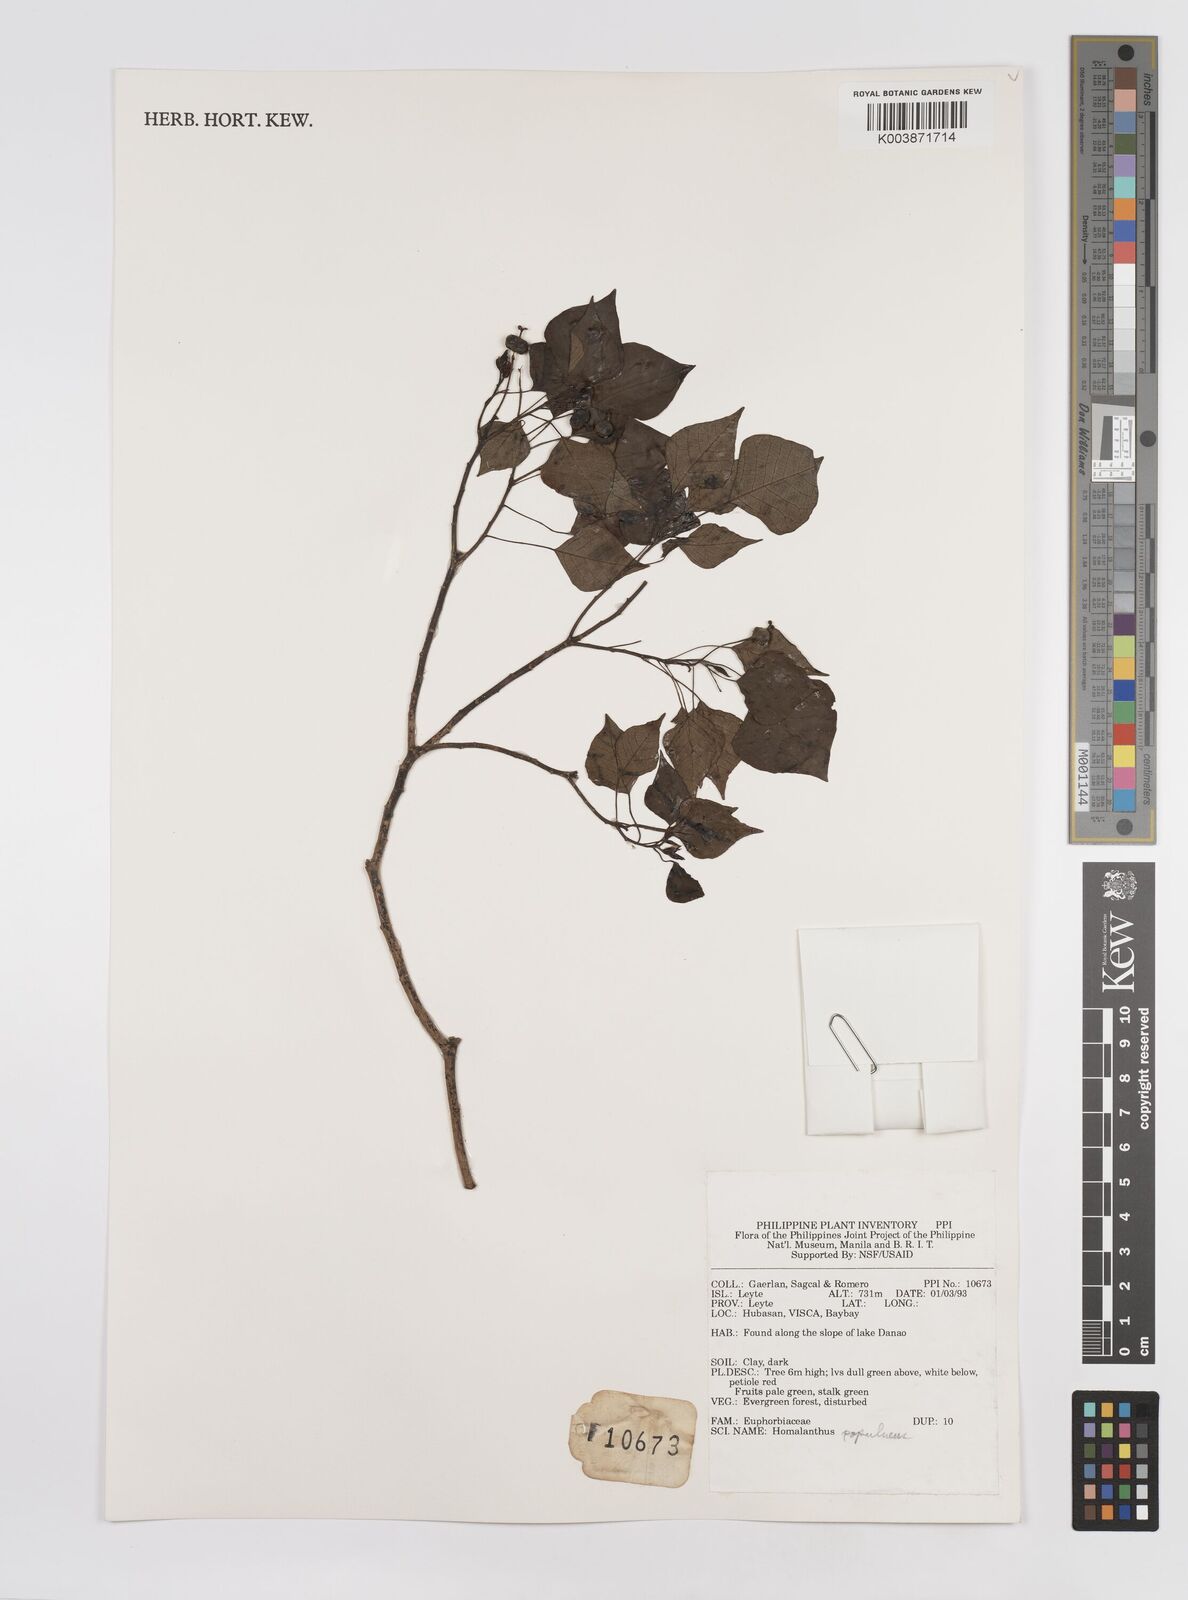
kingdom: Plantae
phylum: Tracheophyta
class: Magnoliopsida
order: Malpighiales
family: Euphorbiaceae
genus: Homalanthus
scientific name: Homalanthus populneus
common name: Spurge
